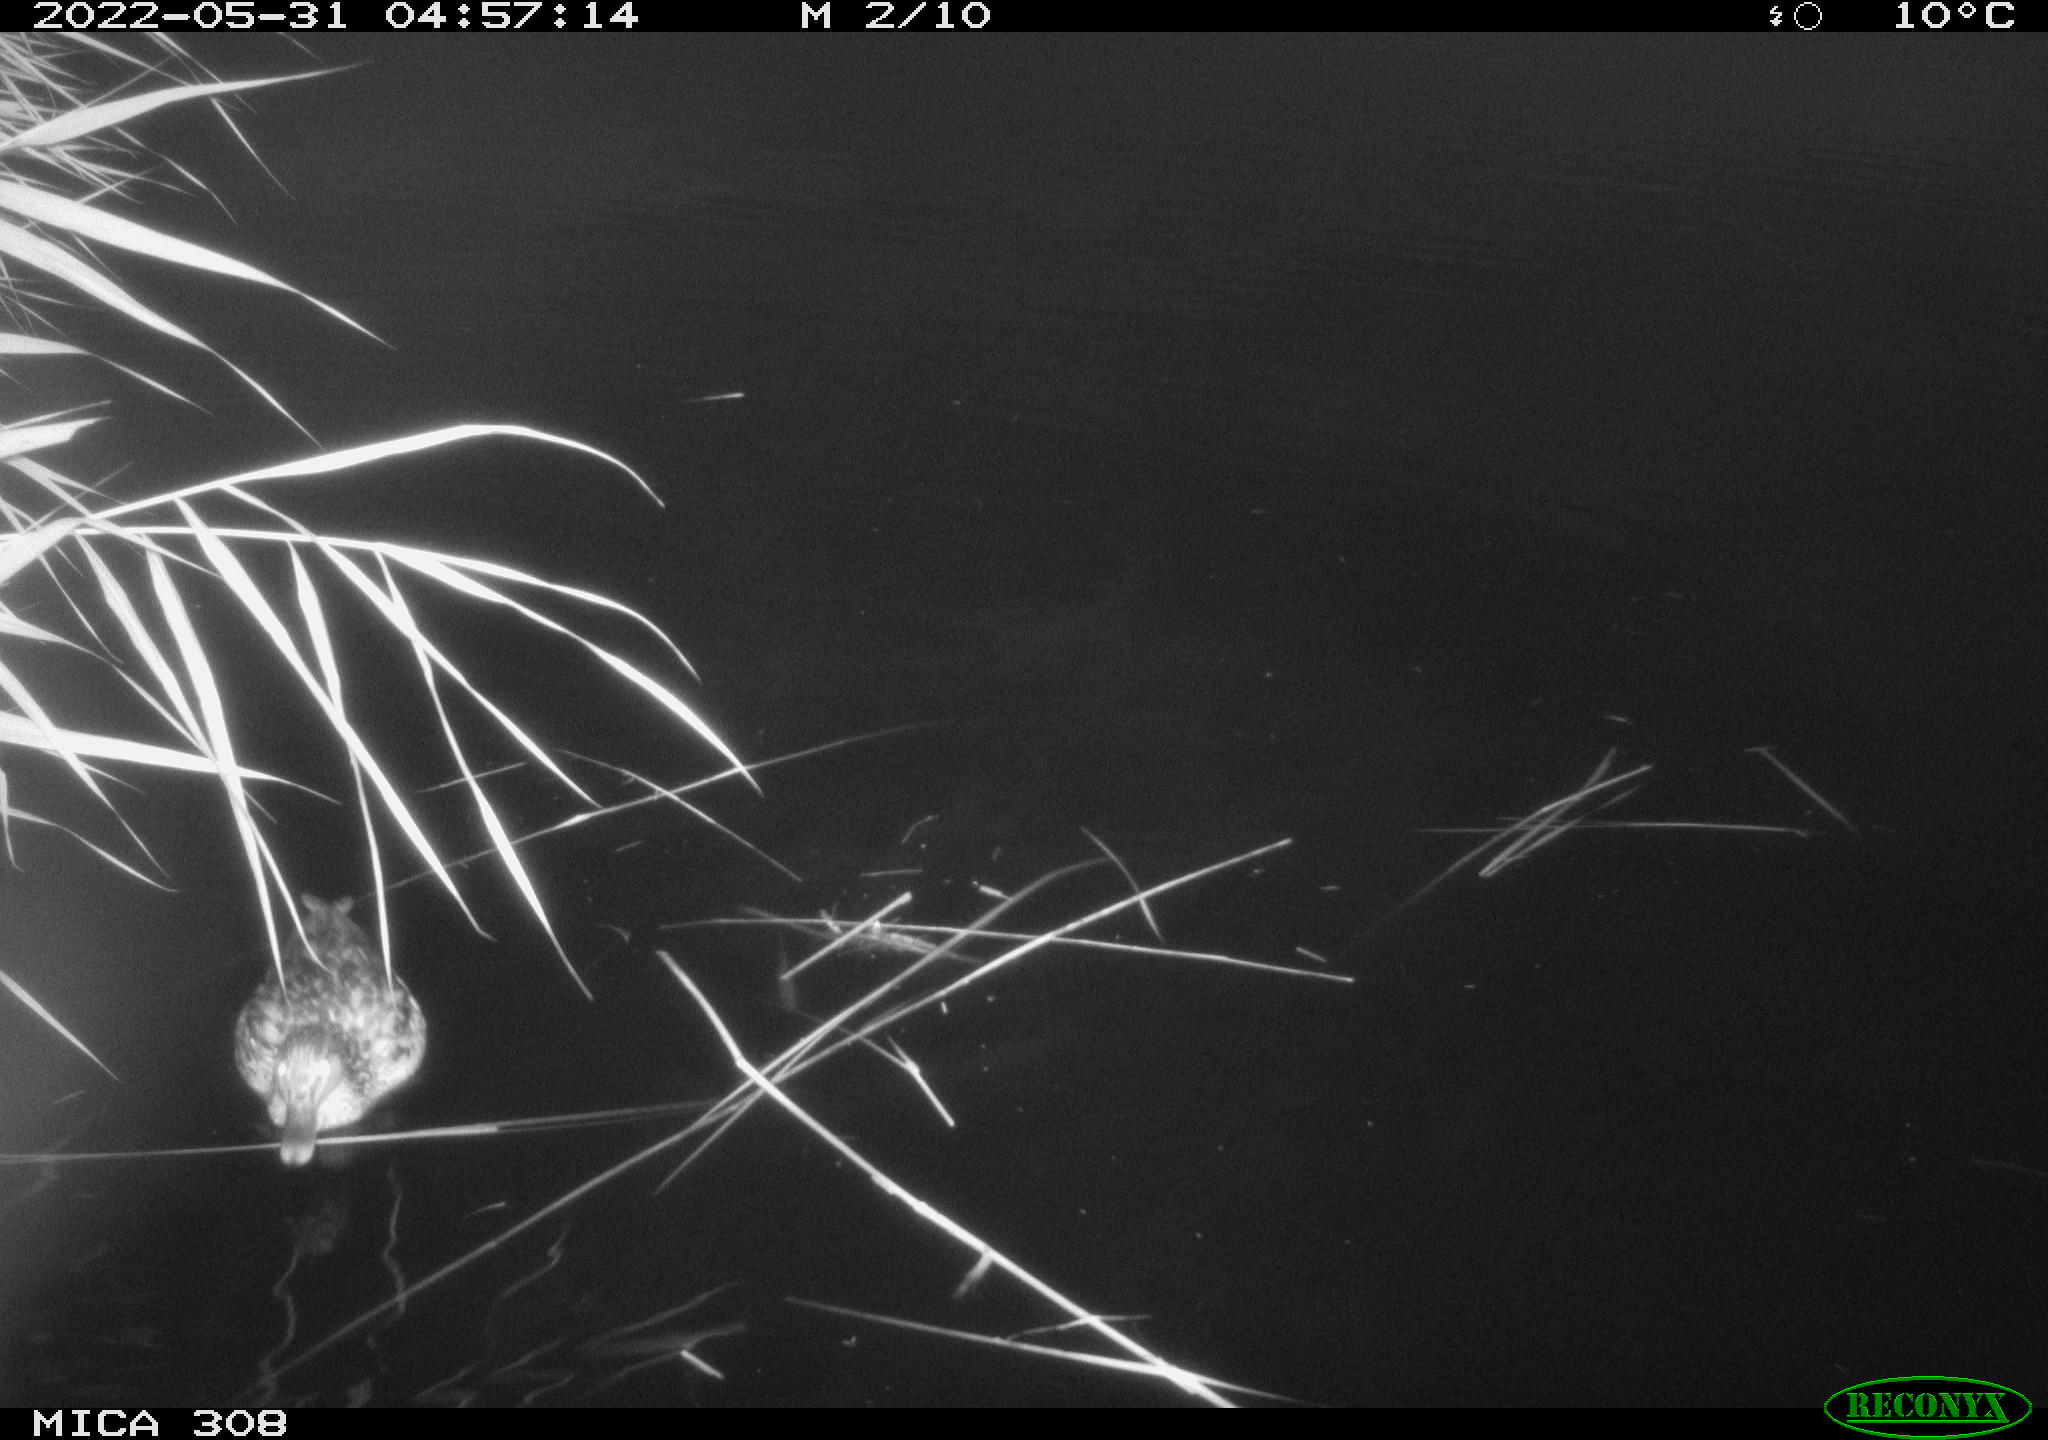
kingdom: Animalia
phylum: Chordata
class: Aves
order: Anseriformes
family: Anatidae
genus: Anas
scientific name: Anas platyrhynchos
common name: Mallard
